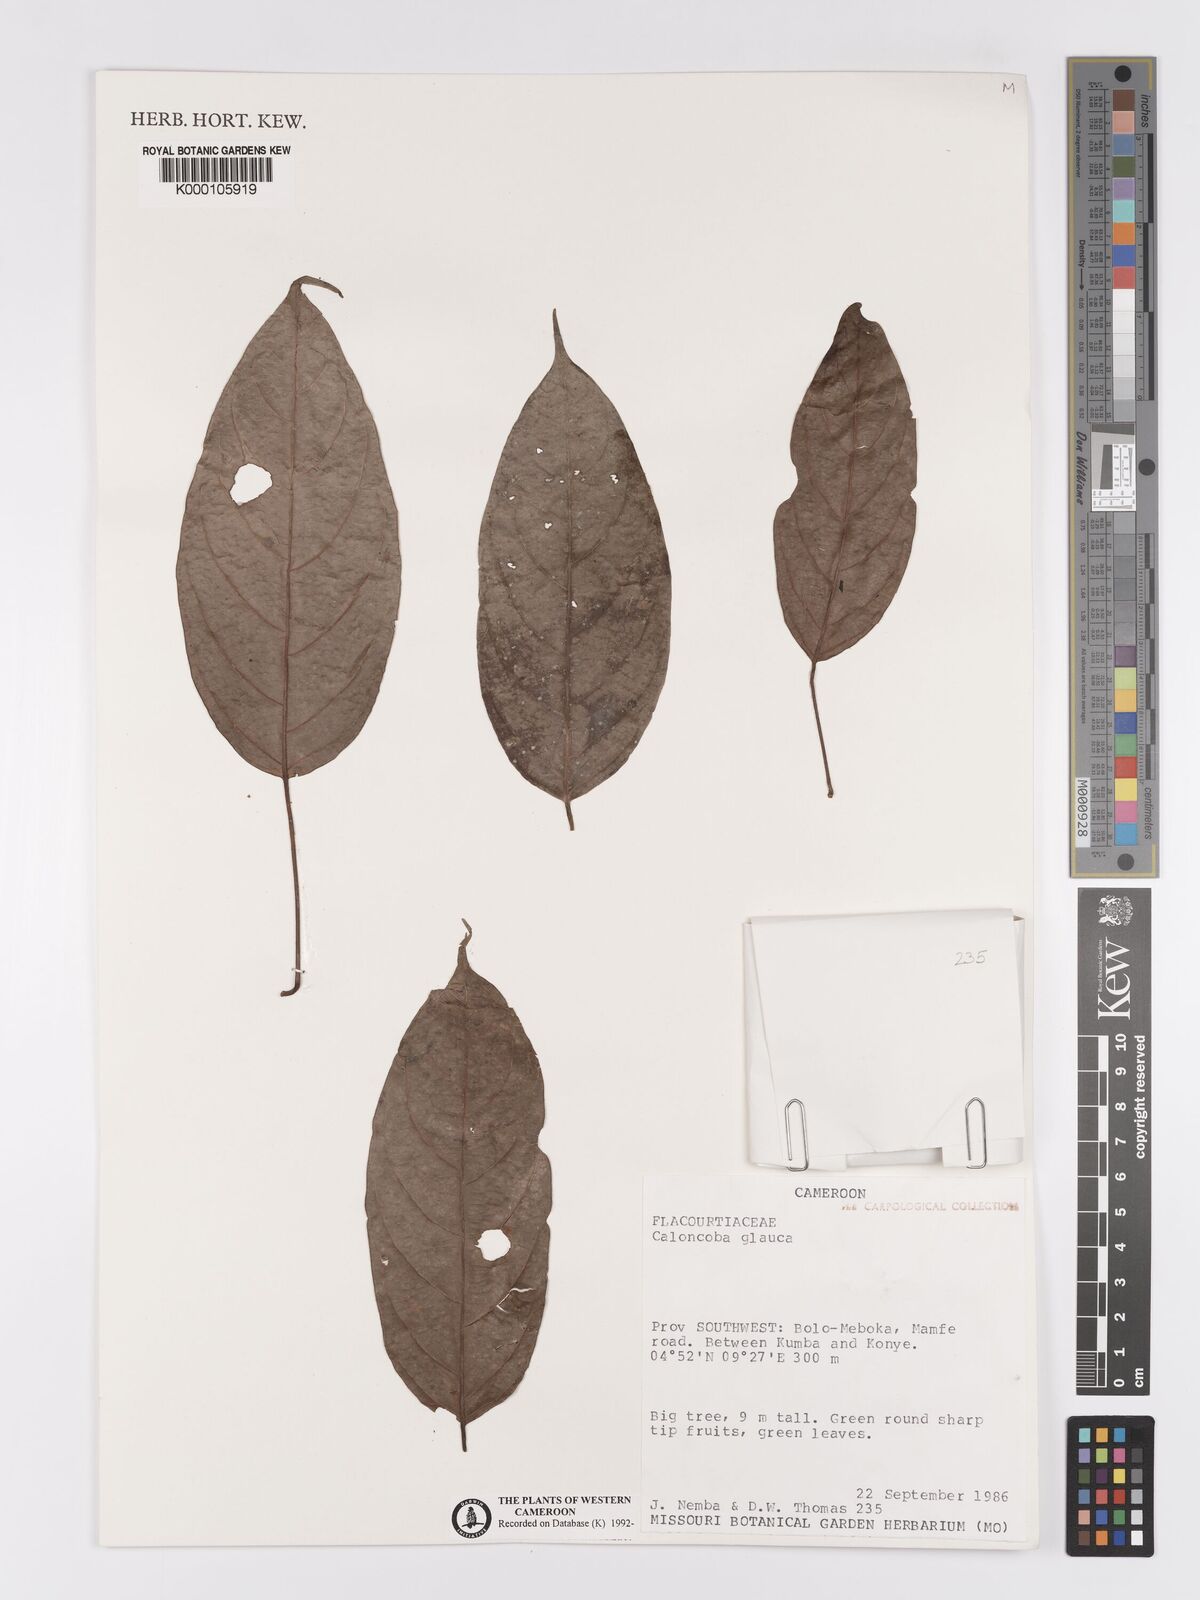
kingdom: Plantae
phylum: Tracheophyta
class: Magnoliopsida
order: Malpighiales
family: Achariaceae
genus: Caloncoba
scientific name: Caloncoba glauca
